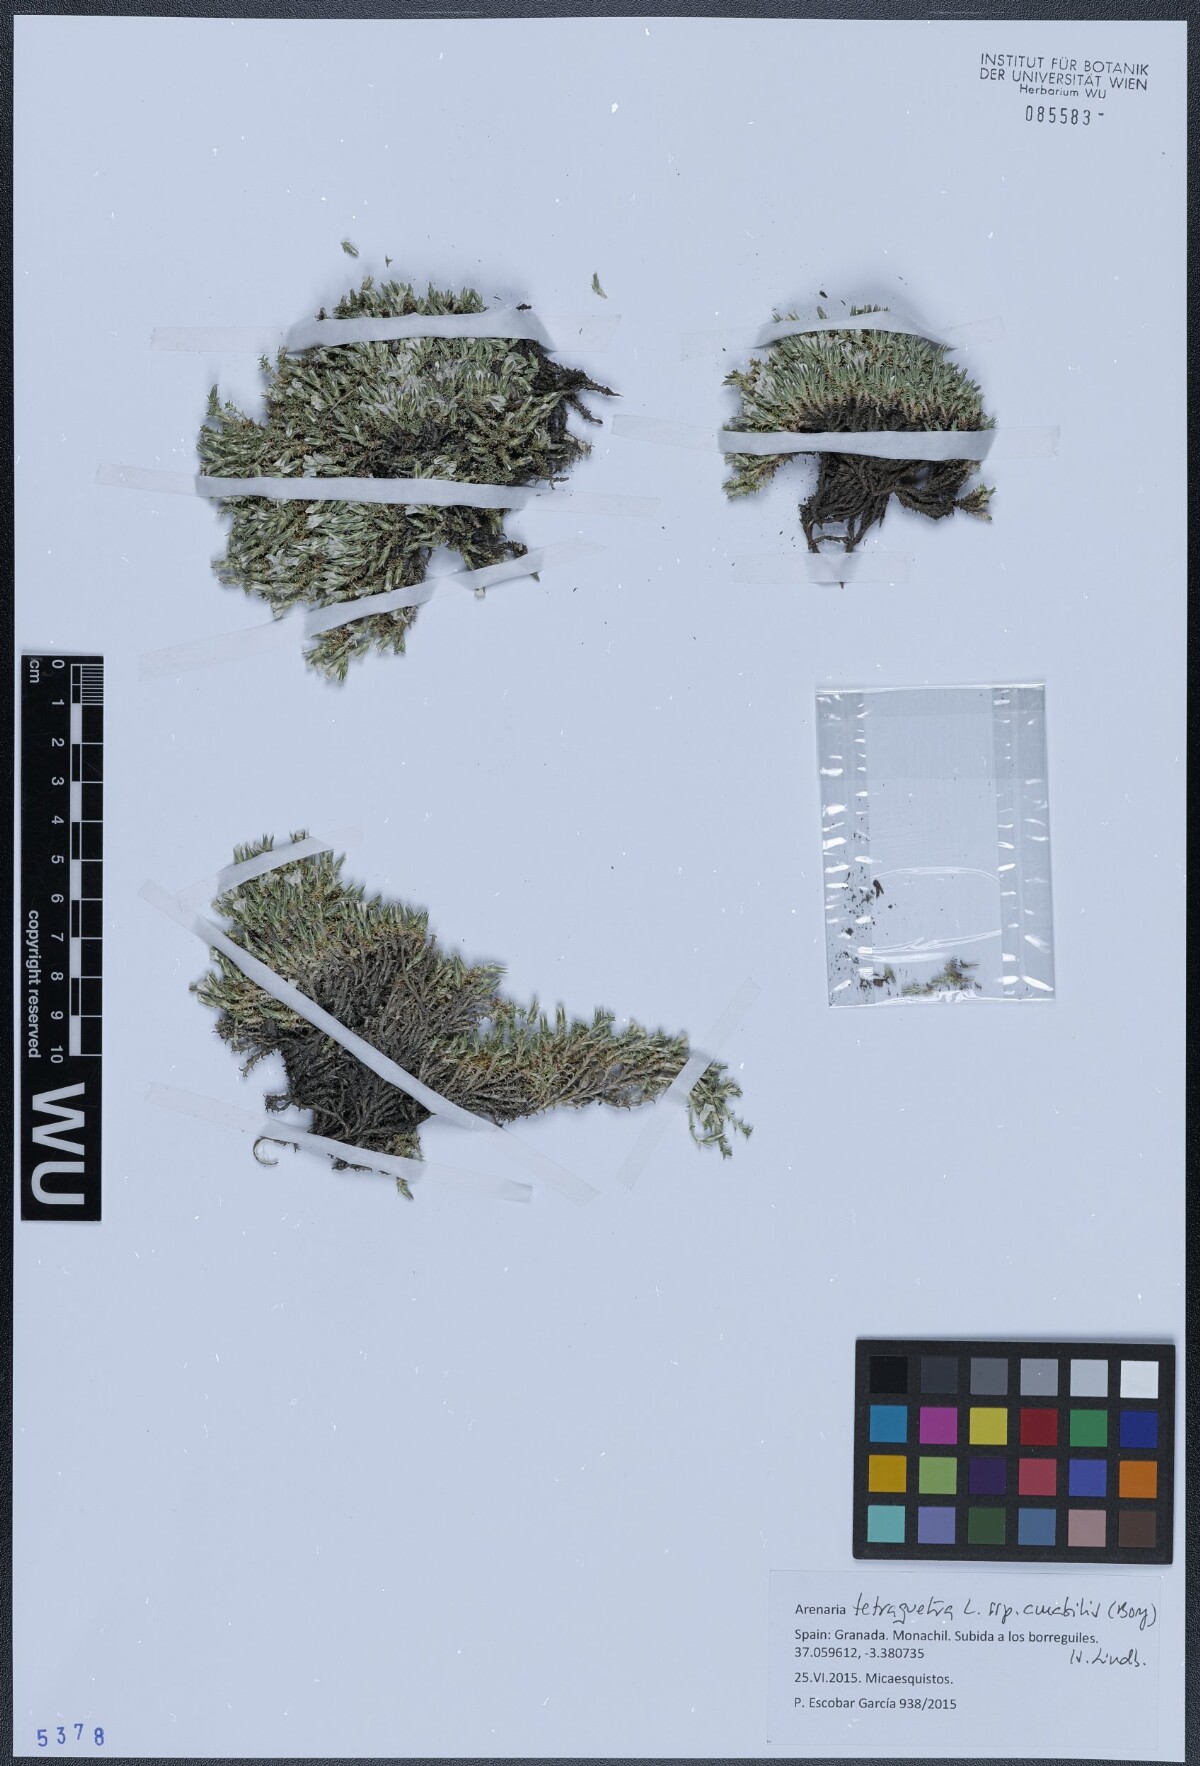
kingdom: Plantae
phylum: Tracheophyta
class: Magnoliopsida
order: Caryophyllales
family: Caryophyllaceae
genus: Arenaria
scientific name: Arenaria tetraquetra
